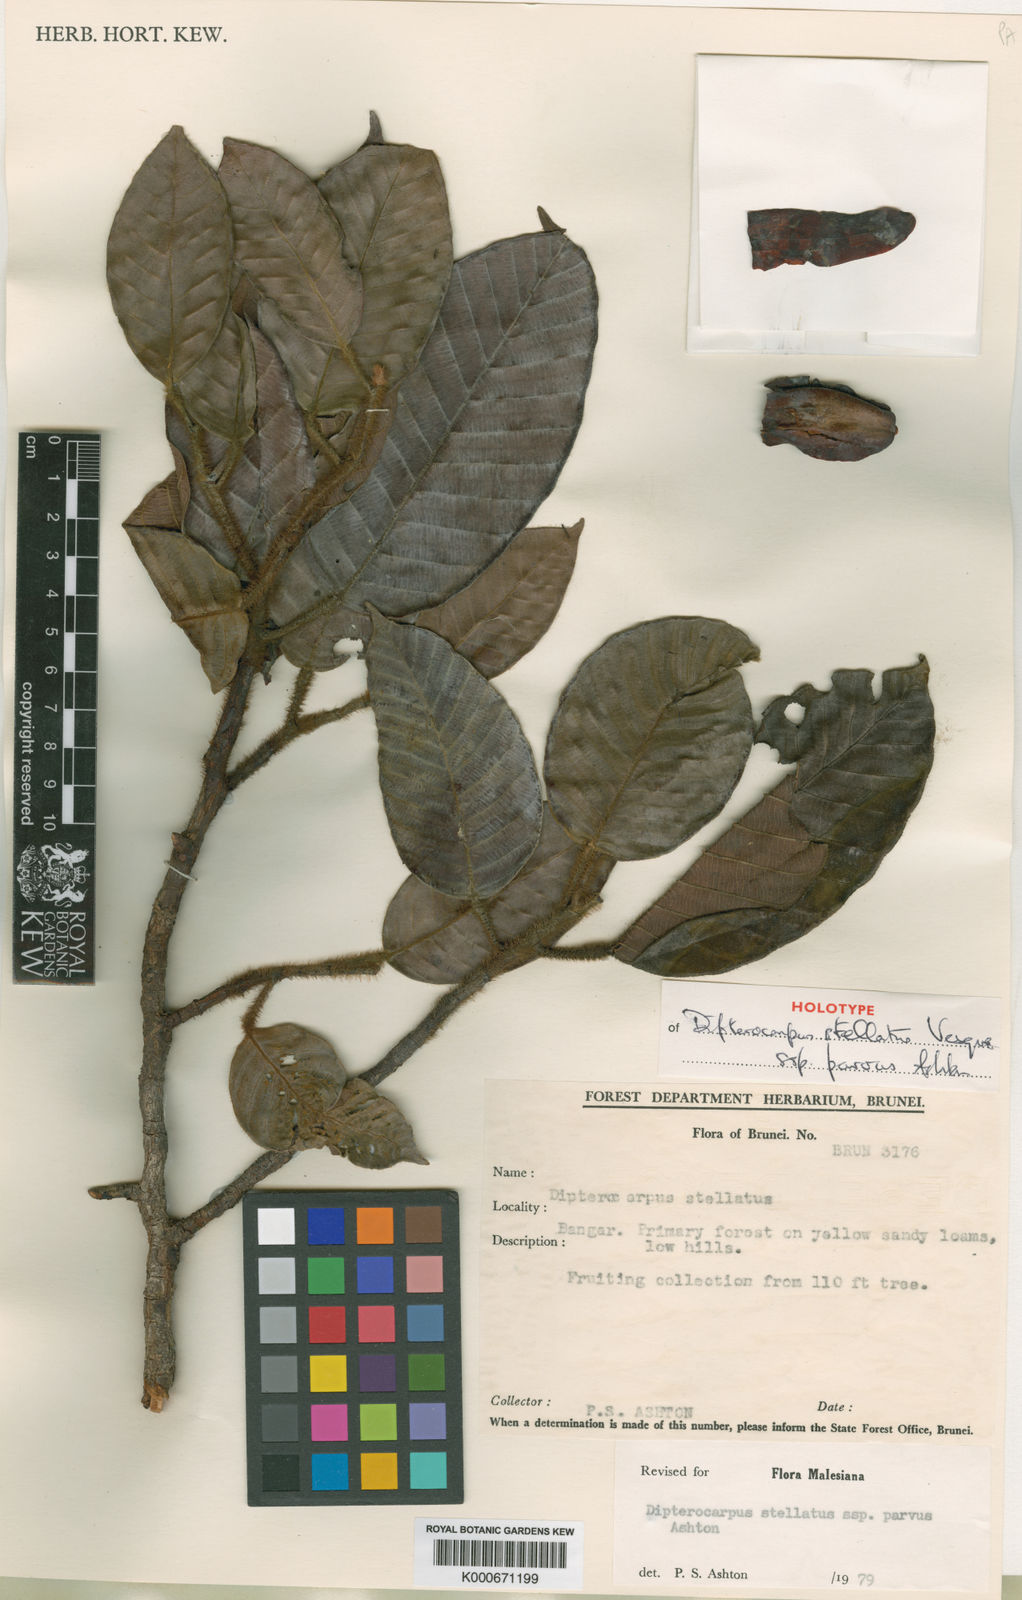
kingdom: Plantae
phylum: Tracheophyta
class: Magnoliopsida
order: Malvales
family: Dipterocarpaceae
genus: Dipterocarpus
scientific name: Dipterocarpus stellatus
